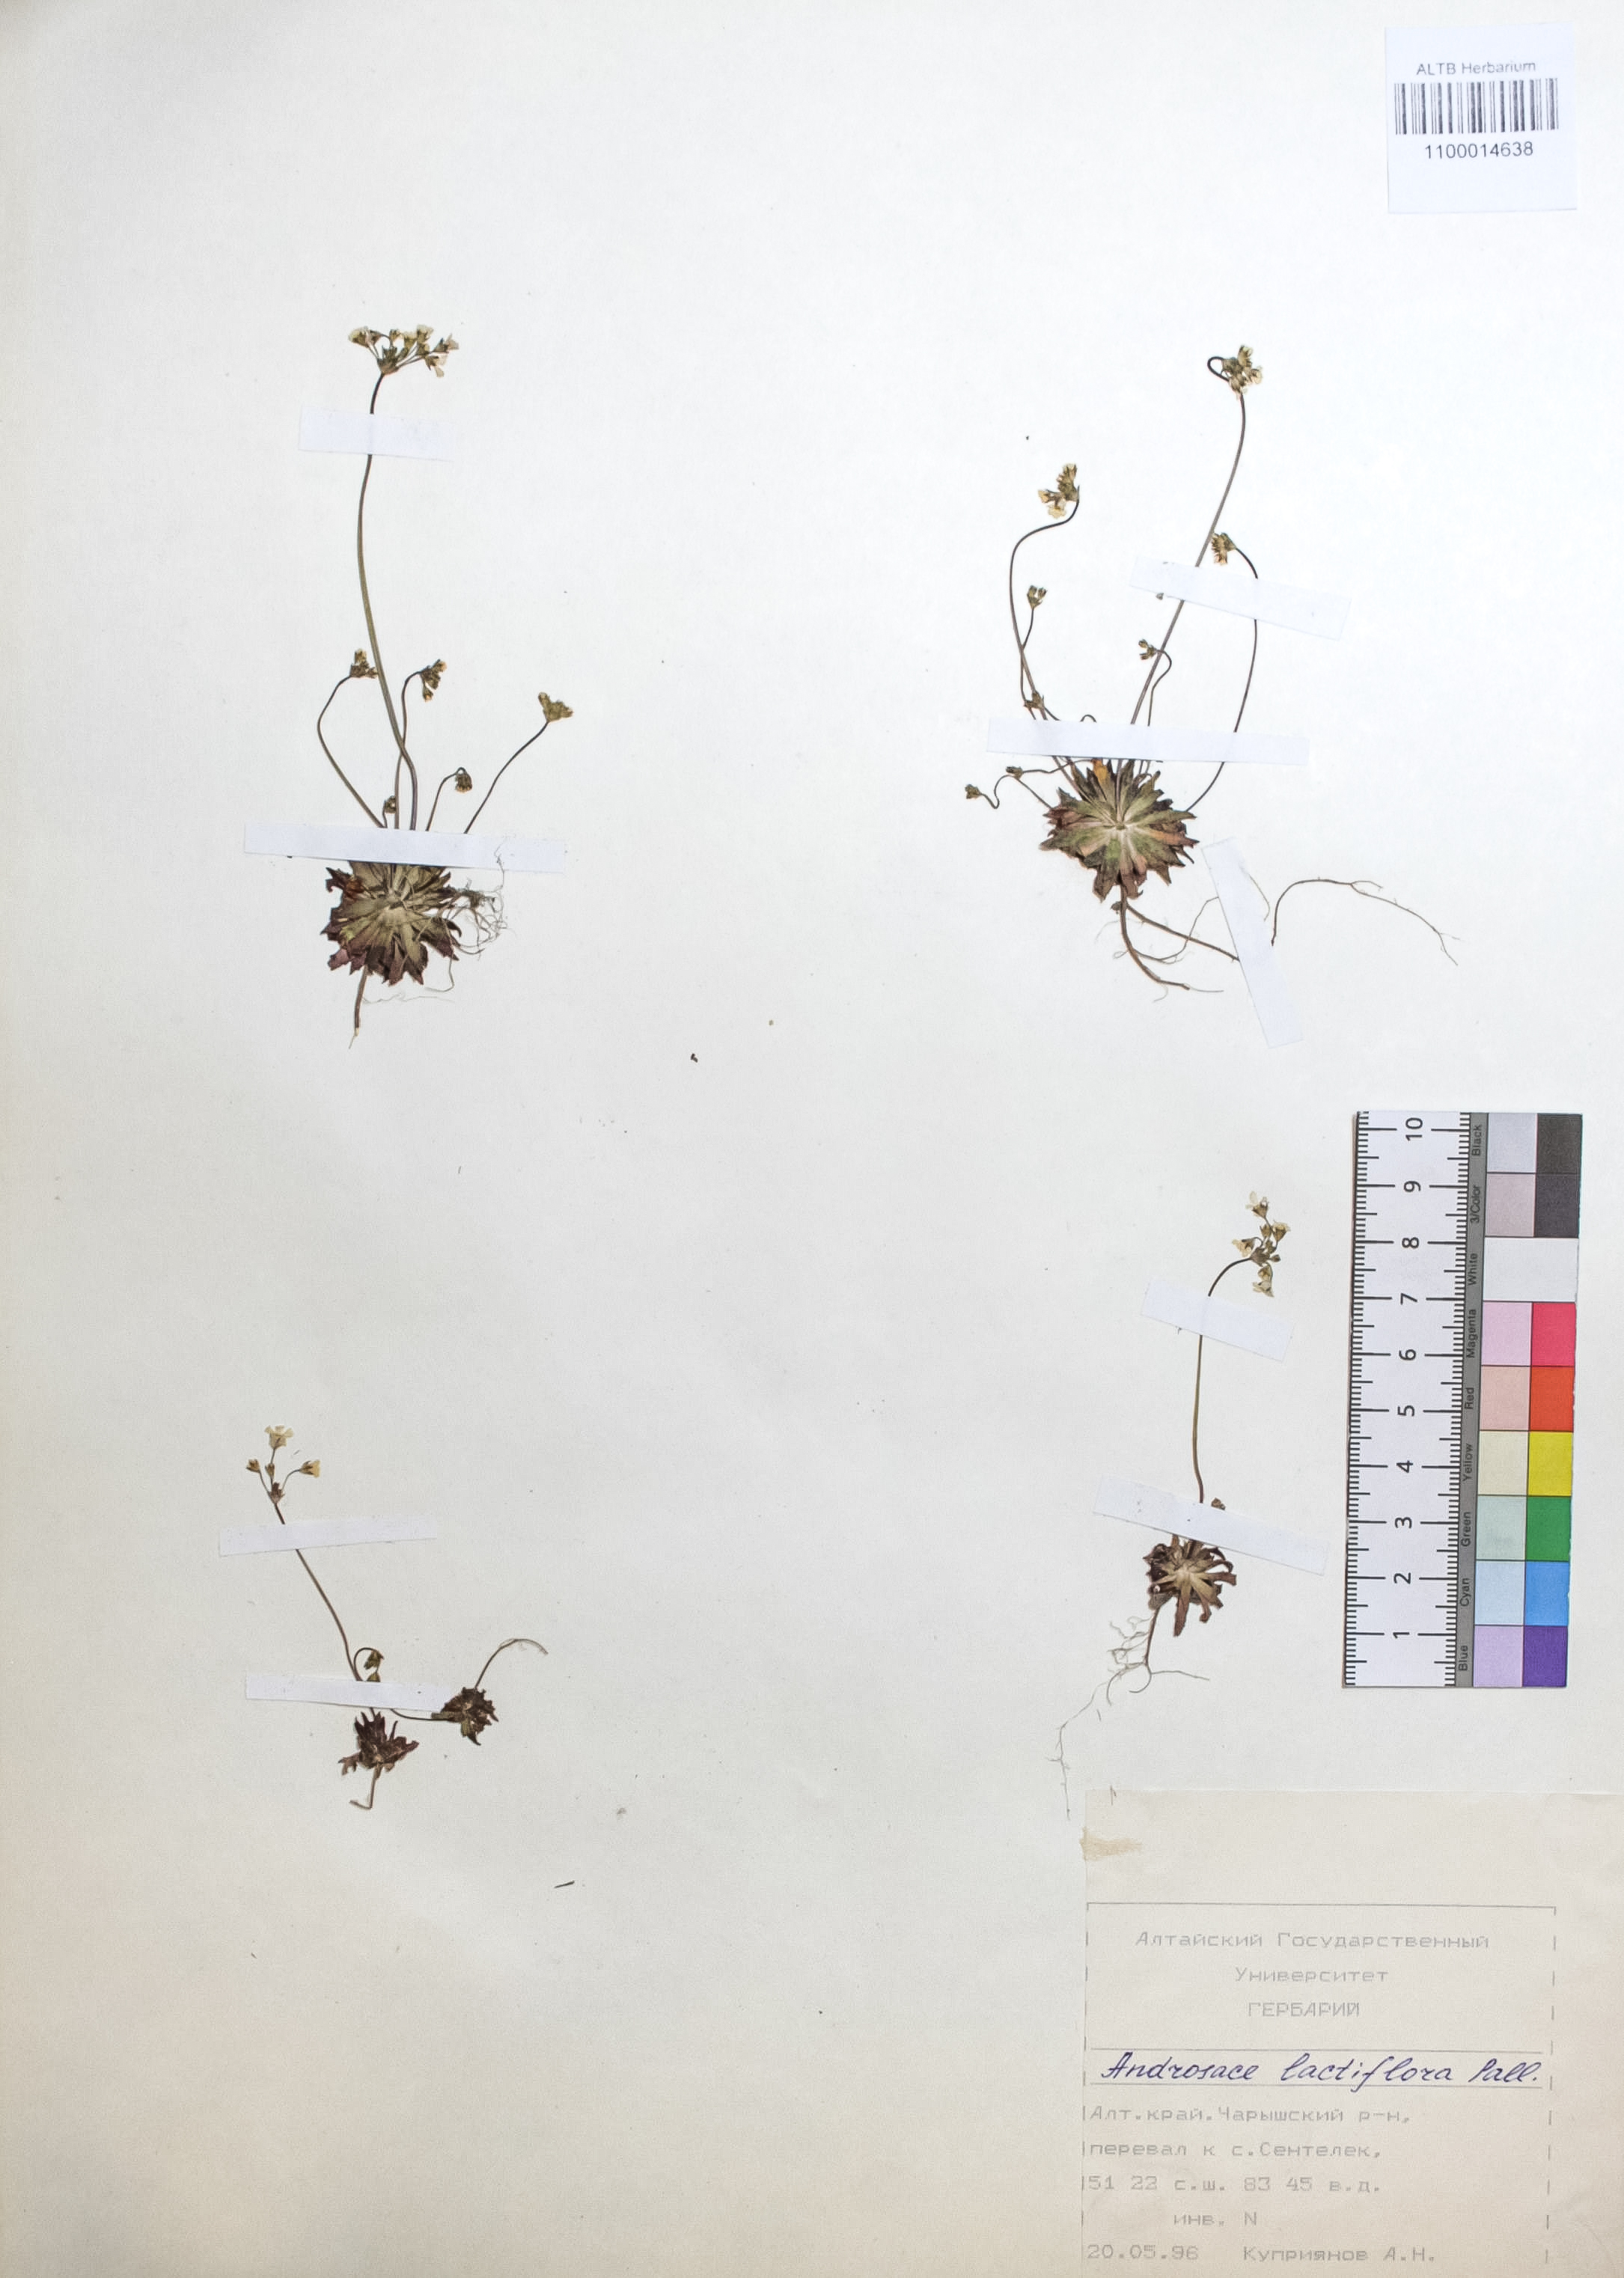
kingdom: Plantae
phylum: Tracheophyta
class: Magnoliopsida
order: Ericales
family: Primulaceae
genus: Androsace
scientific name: Androsace lactiflora
